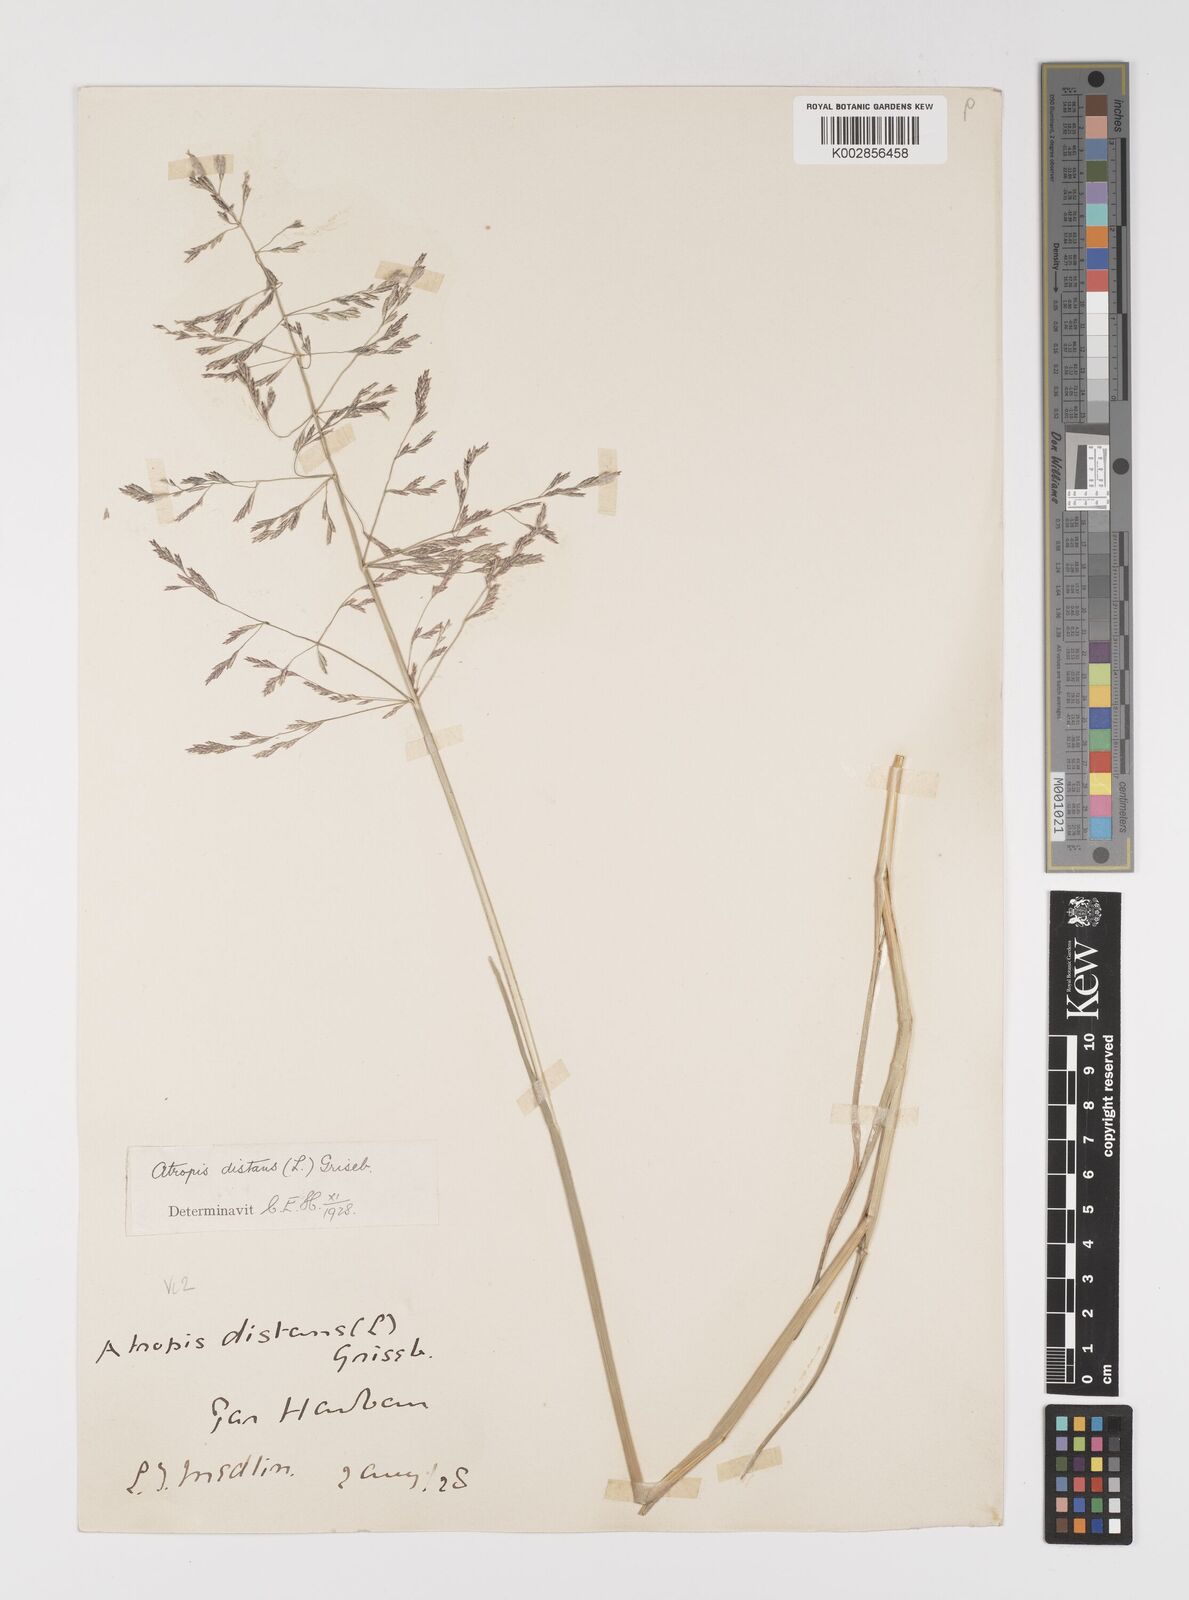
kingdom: Plantae
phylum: Tracheophyta
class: Liliopsida
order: Poales
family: Poaceae
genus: Puccinellia
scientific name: Puccinellia distans
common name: Weeping alkaligrass
